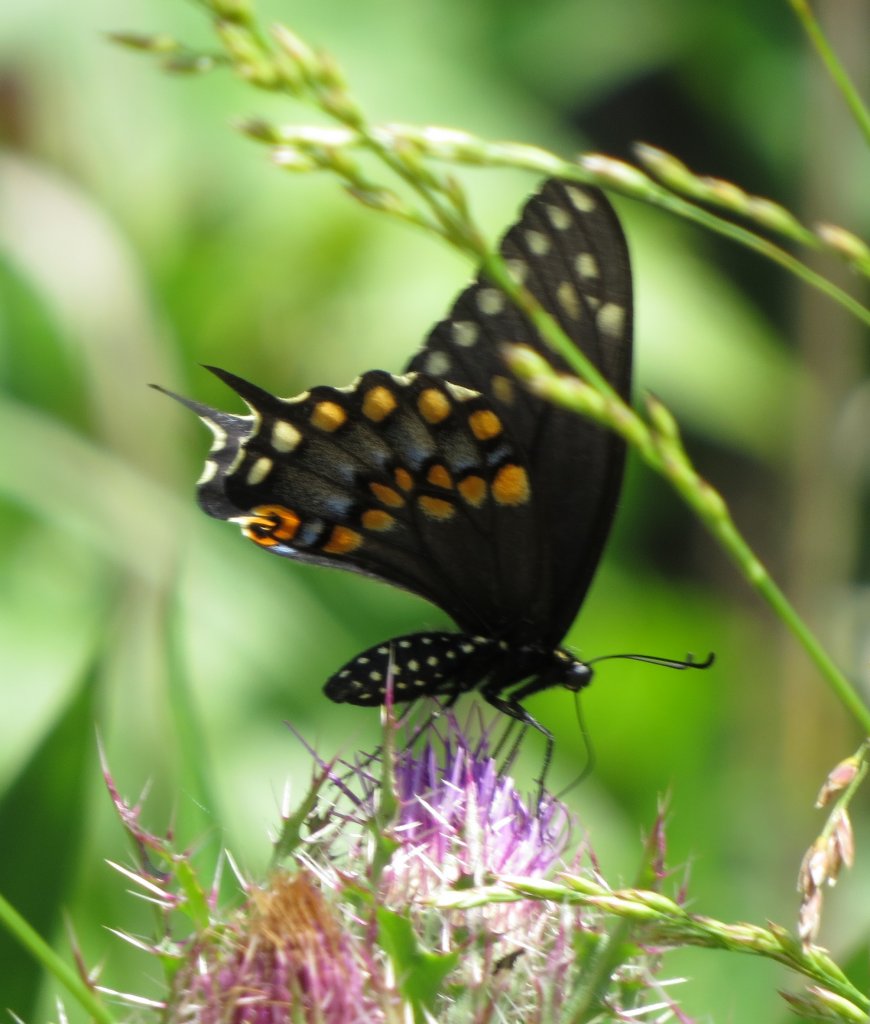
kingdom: Animalia
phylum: Arthropoda
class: Insecta
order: Lepidoptera
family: Papilionidae
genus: Papilio
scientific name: Papilio polyxenes
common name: Black Swallowtail
